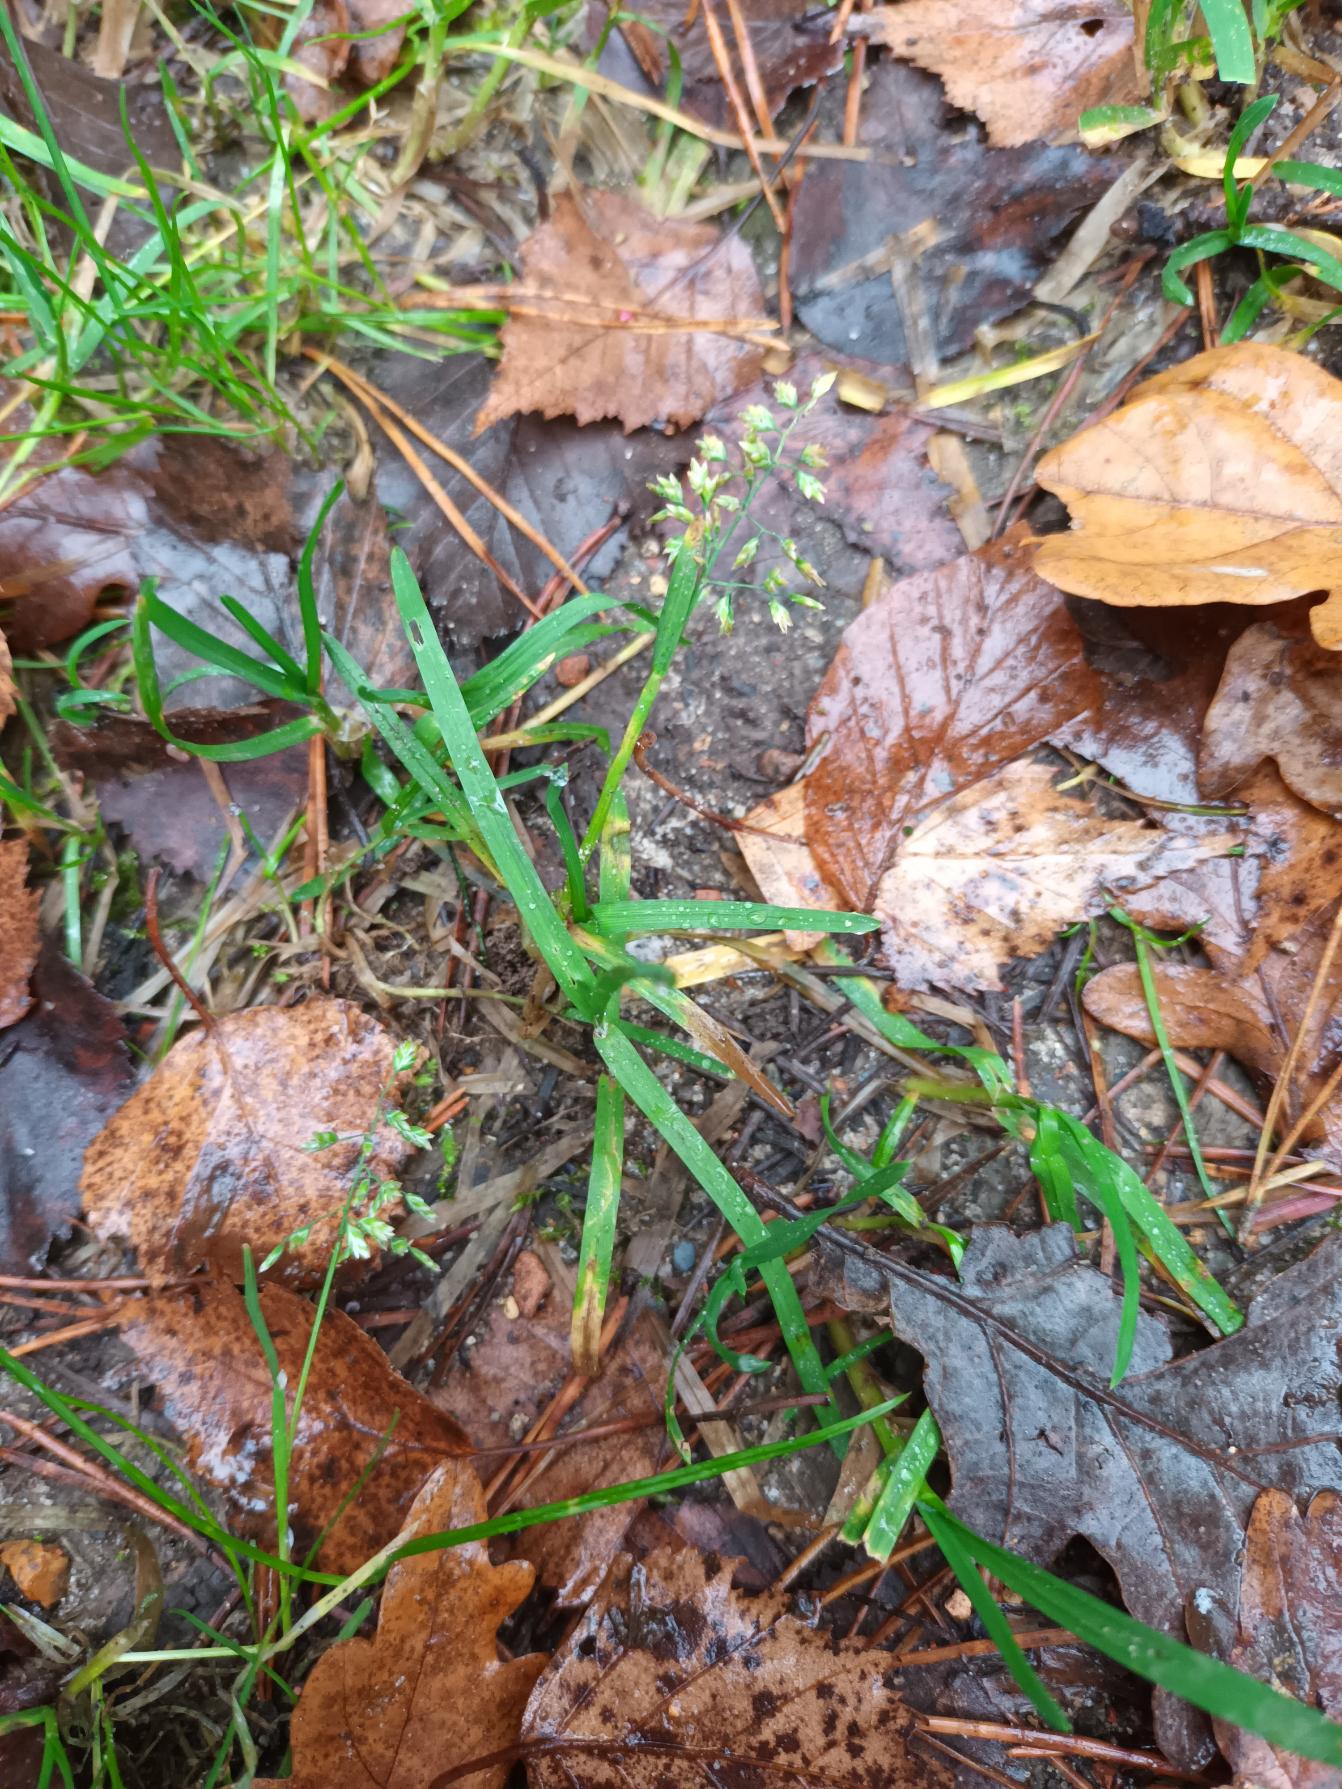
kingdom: Plantae
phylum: Tracheophyta
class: Liliopsida
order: Poales
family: Poaceae
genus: Poa
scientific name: Poa annua
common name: Enårig rapgræs
